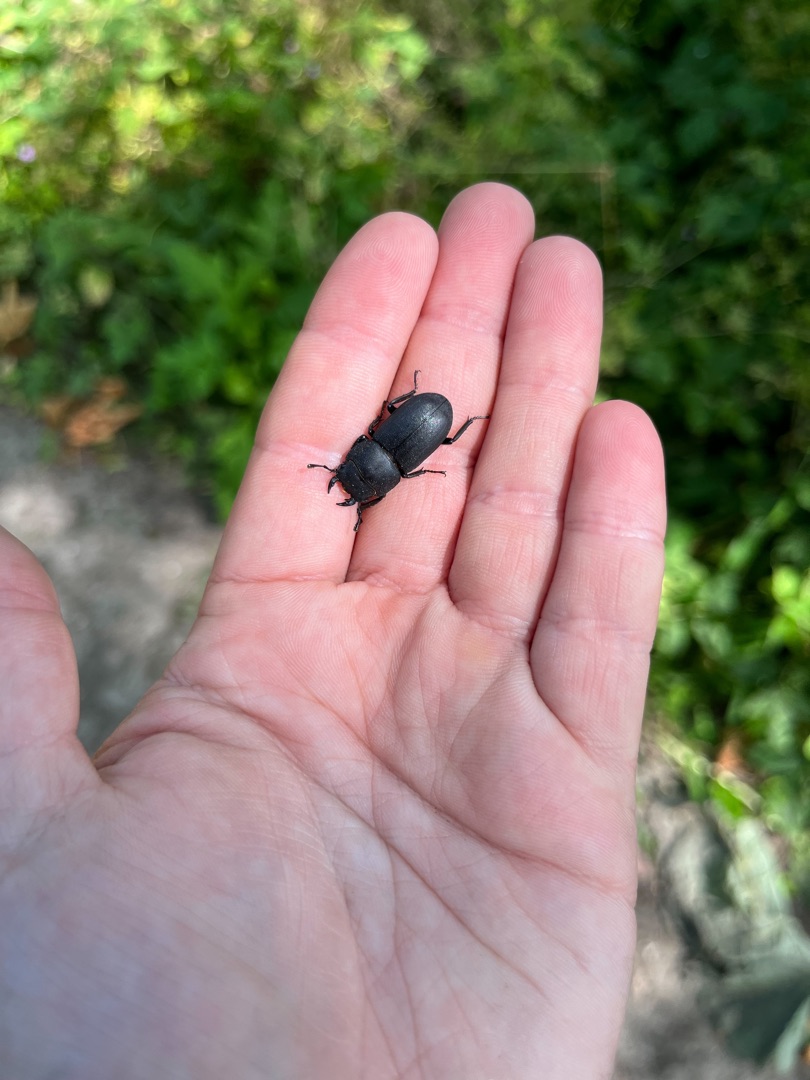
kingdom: Animalia
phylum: Arthropoda
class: Insecta
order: Coleoptera
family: Lucanidae
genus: Dorcus
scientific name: Dorcus parallelipipedus
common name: Bøghjort
